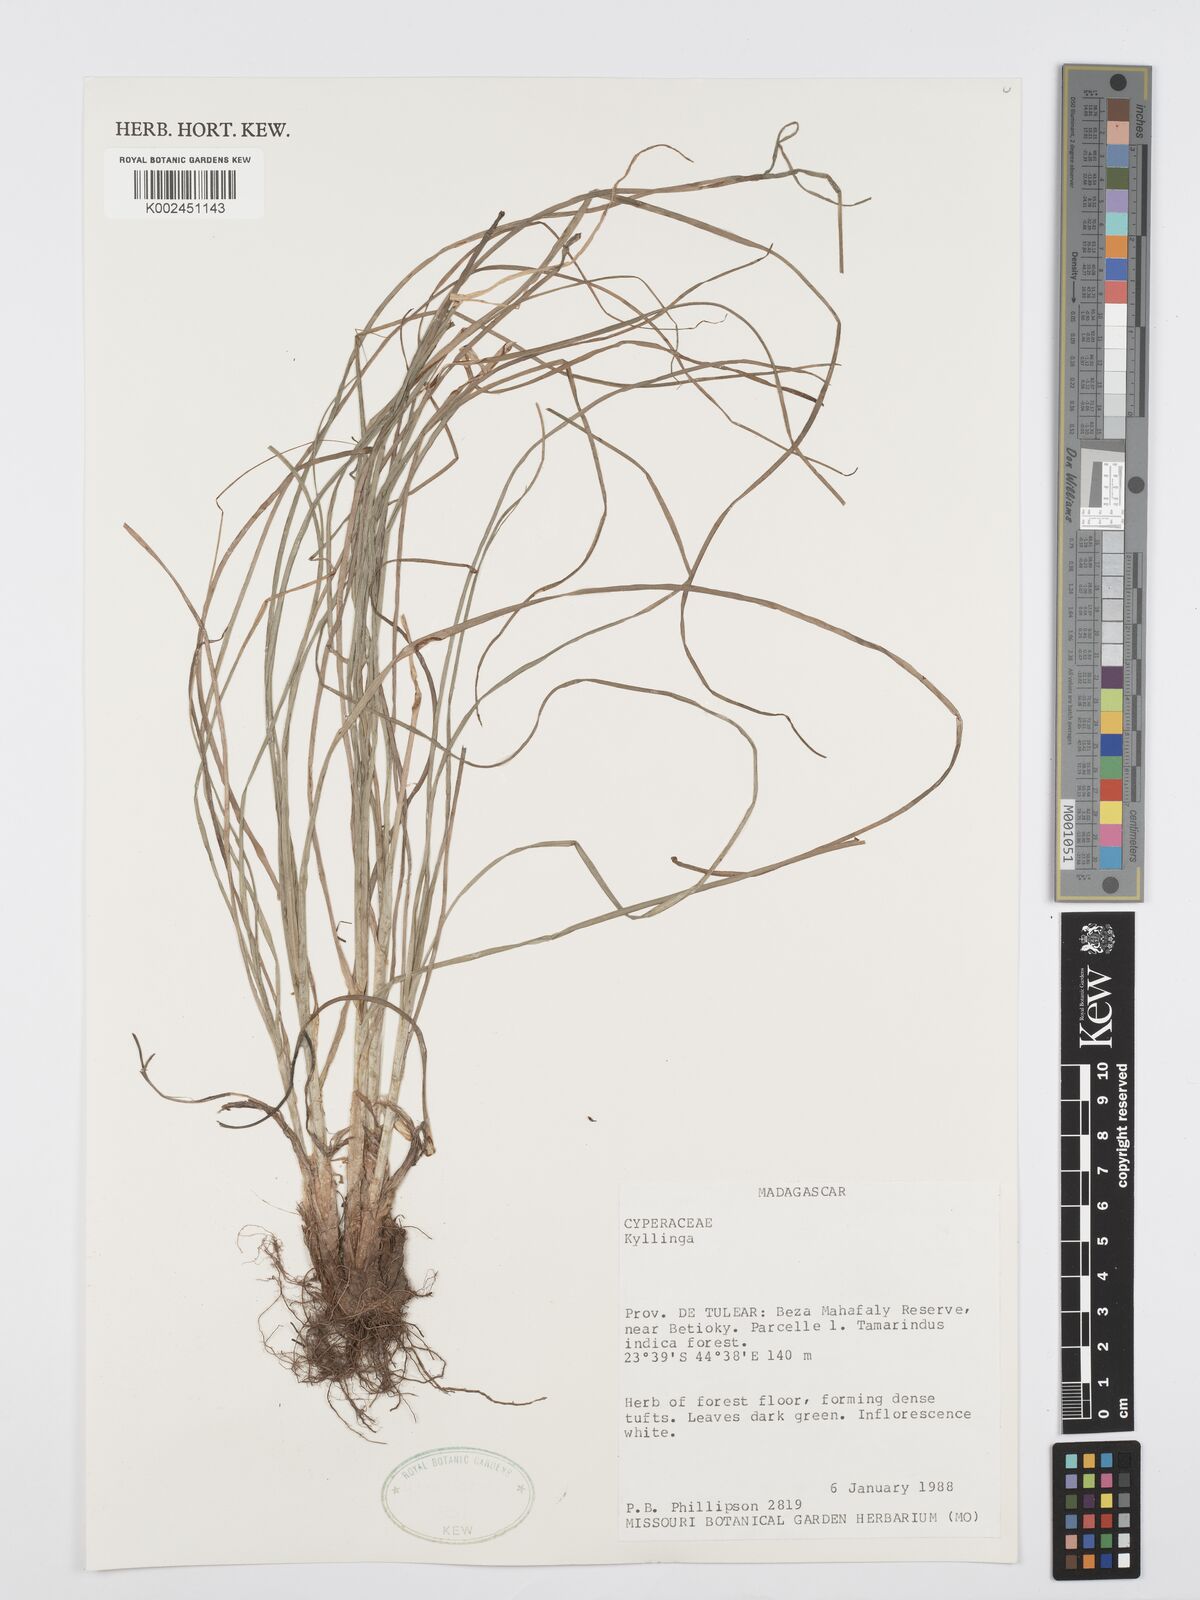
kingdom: Plantae
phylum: Tracheophyta
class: Liliopsida
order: Poales
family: Cyperaceae
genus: Cyperus
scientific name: Cyperus
